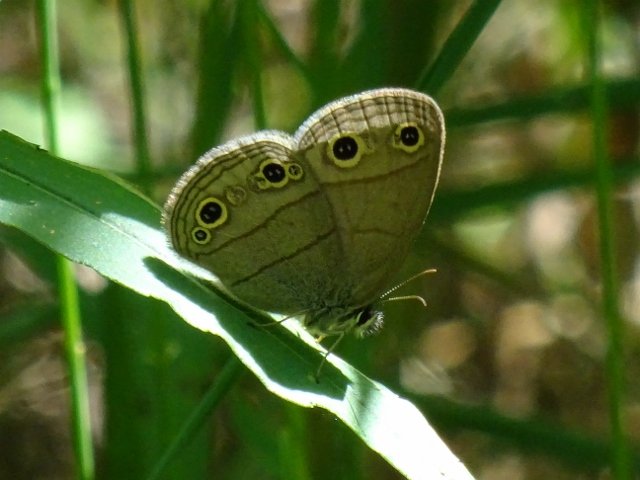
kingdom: Animalia
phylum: Arthropoda
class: Insecta
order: Lepidoptera
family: Nymphalidae
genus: Euptychia
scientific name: Euptychia cymela
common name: Little Wood Satyr
